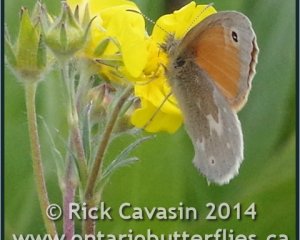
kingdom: Animalia
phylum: Arthropoda
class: Insecta
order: Lepidoptera
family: Nymphalidae
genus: Coenonympha
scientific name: Coenonympha tullia
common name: Large Heath
